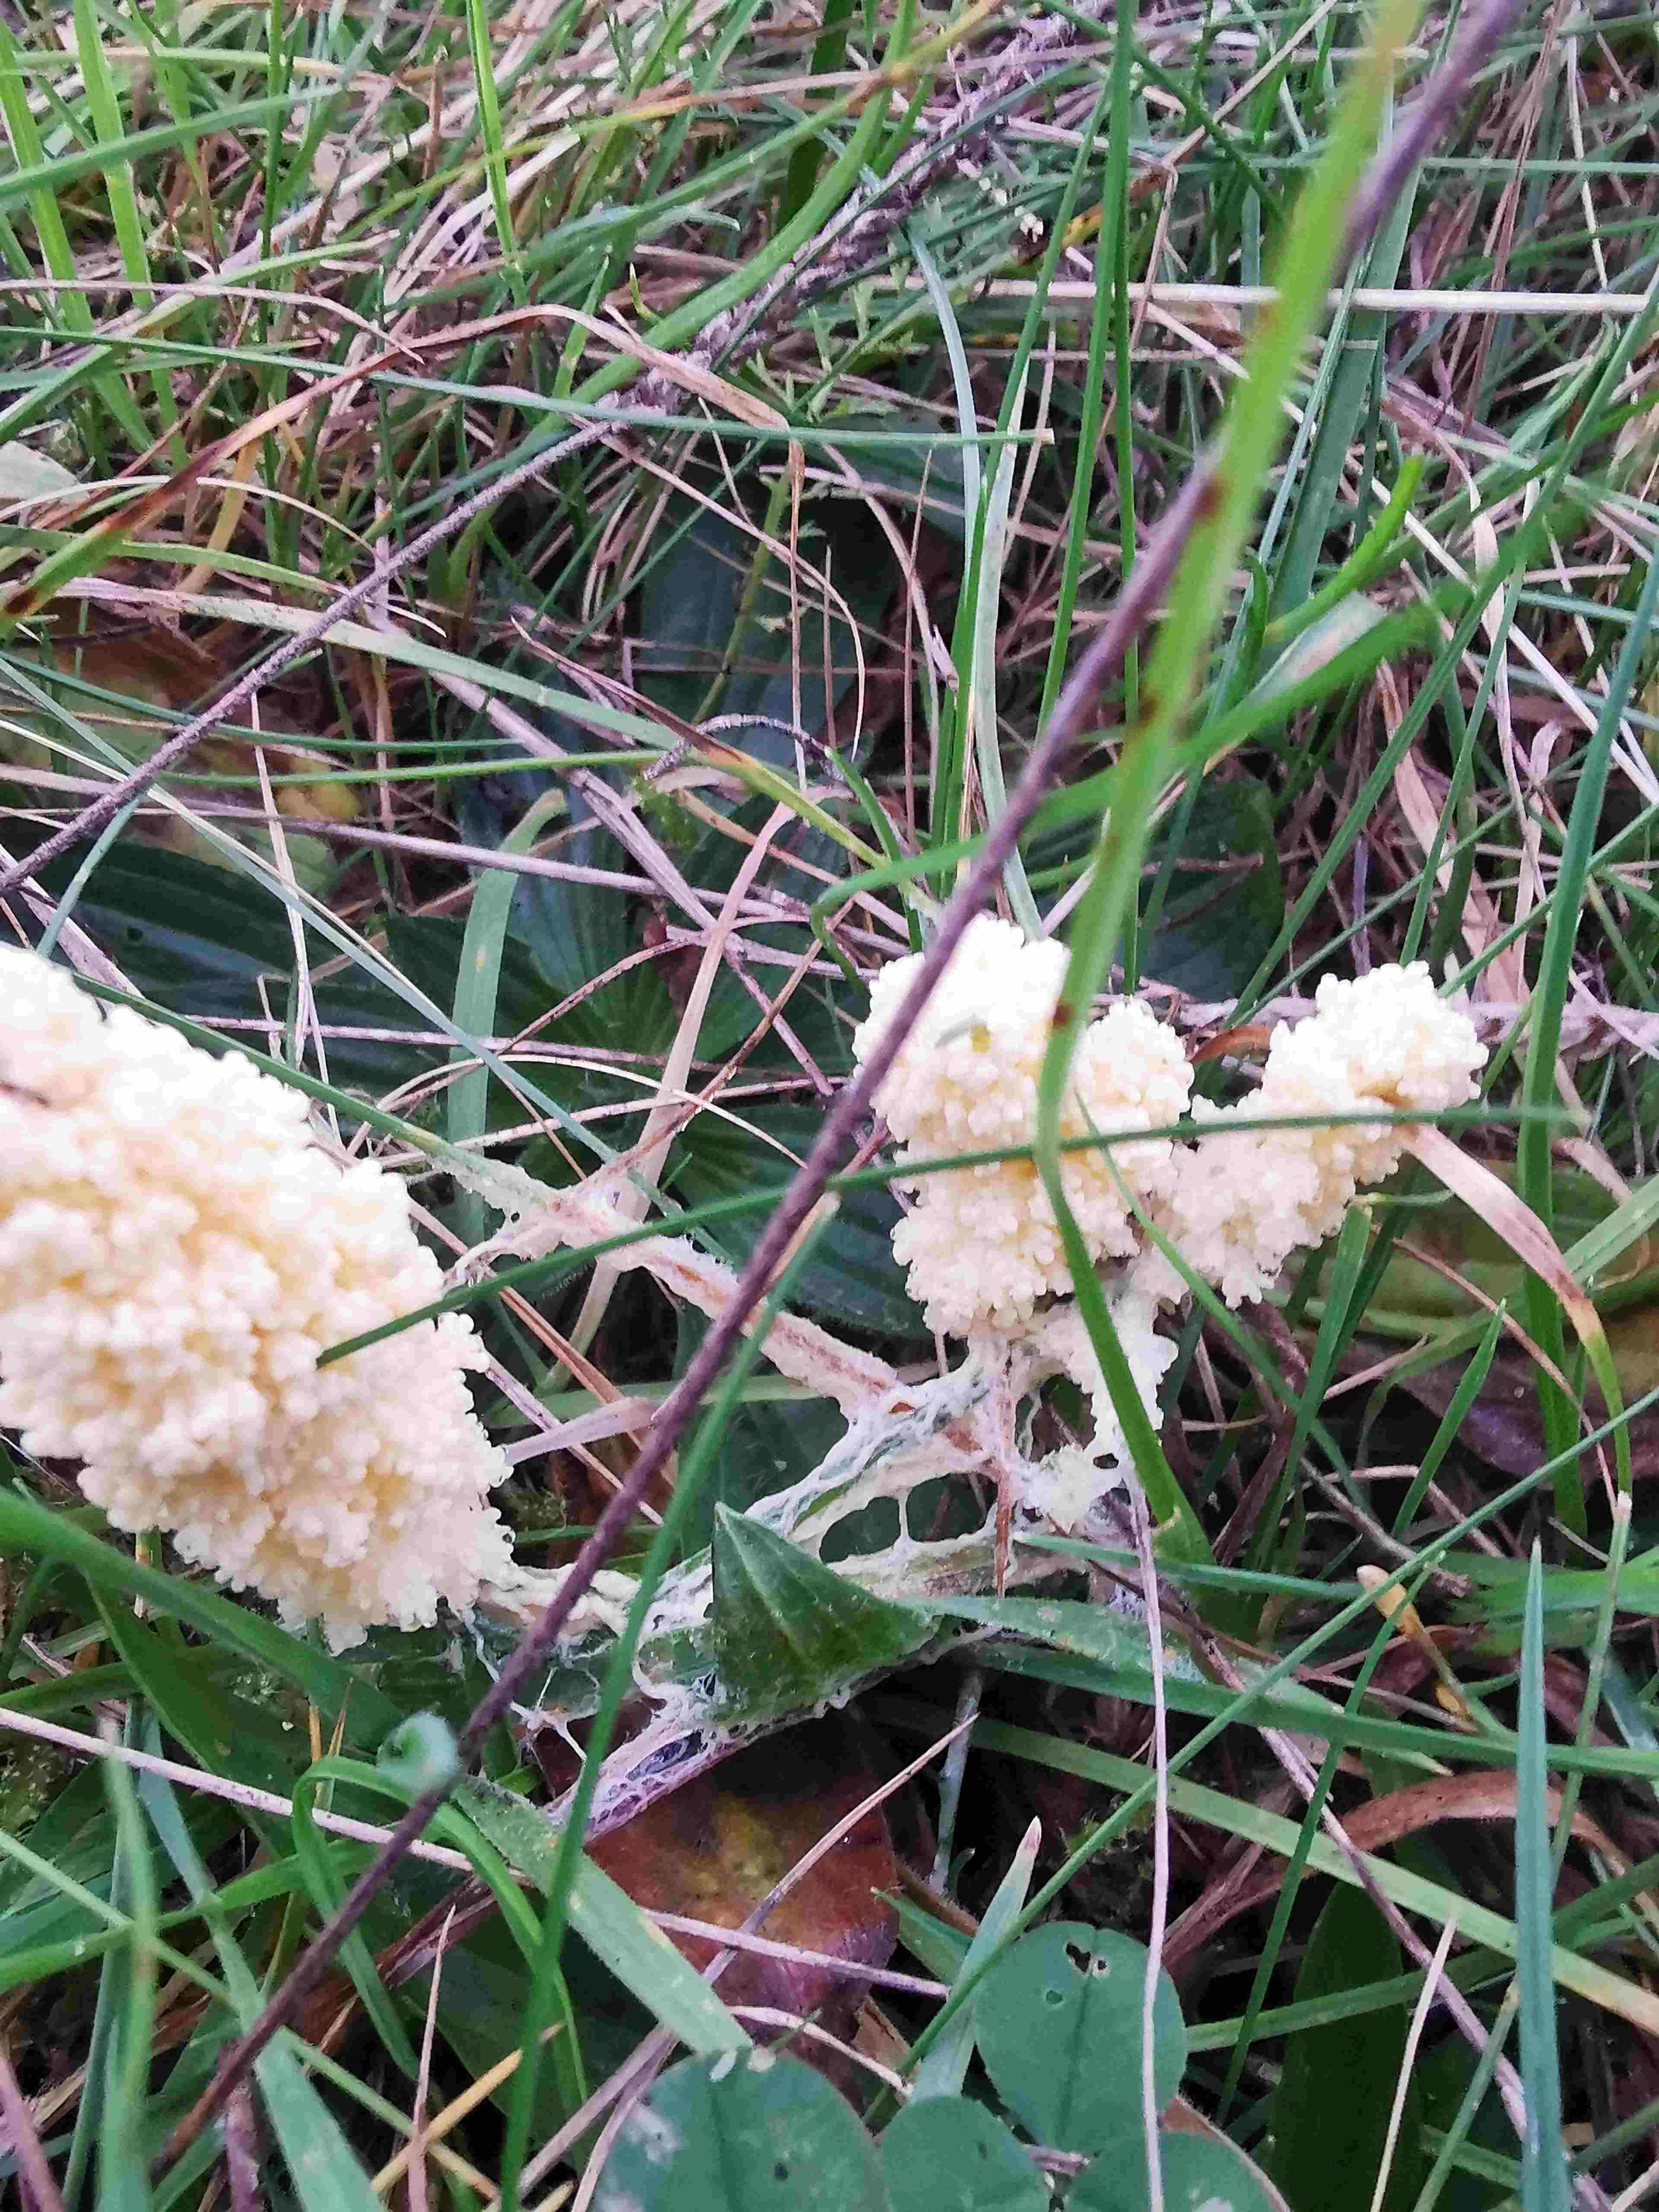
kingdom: Protozoa
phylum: Mycetozoa
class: Myxomycetes
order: Physarales
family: Physaraceae
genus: Didymium
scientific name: Didymium
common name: urteskum
